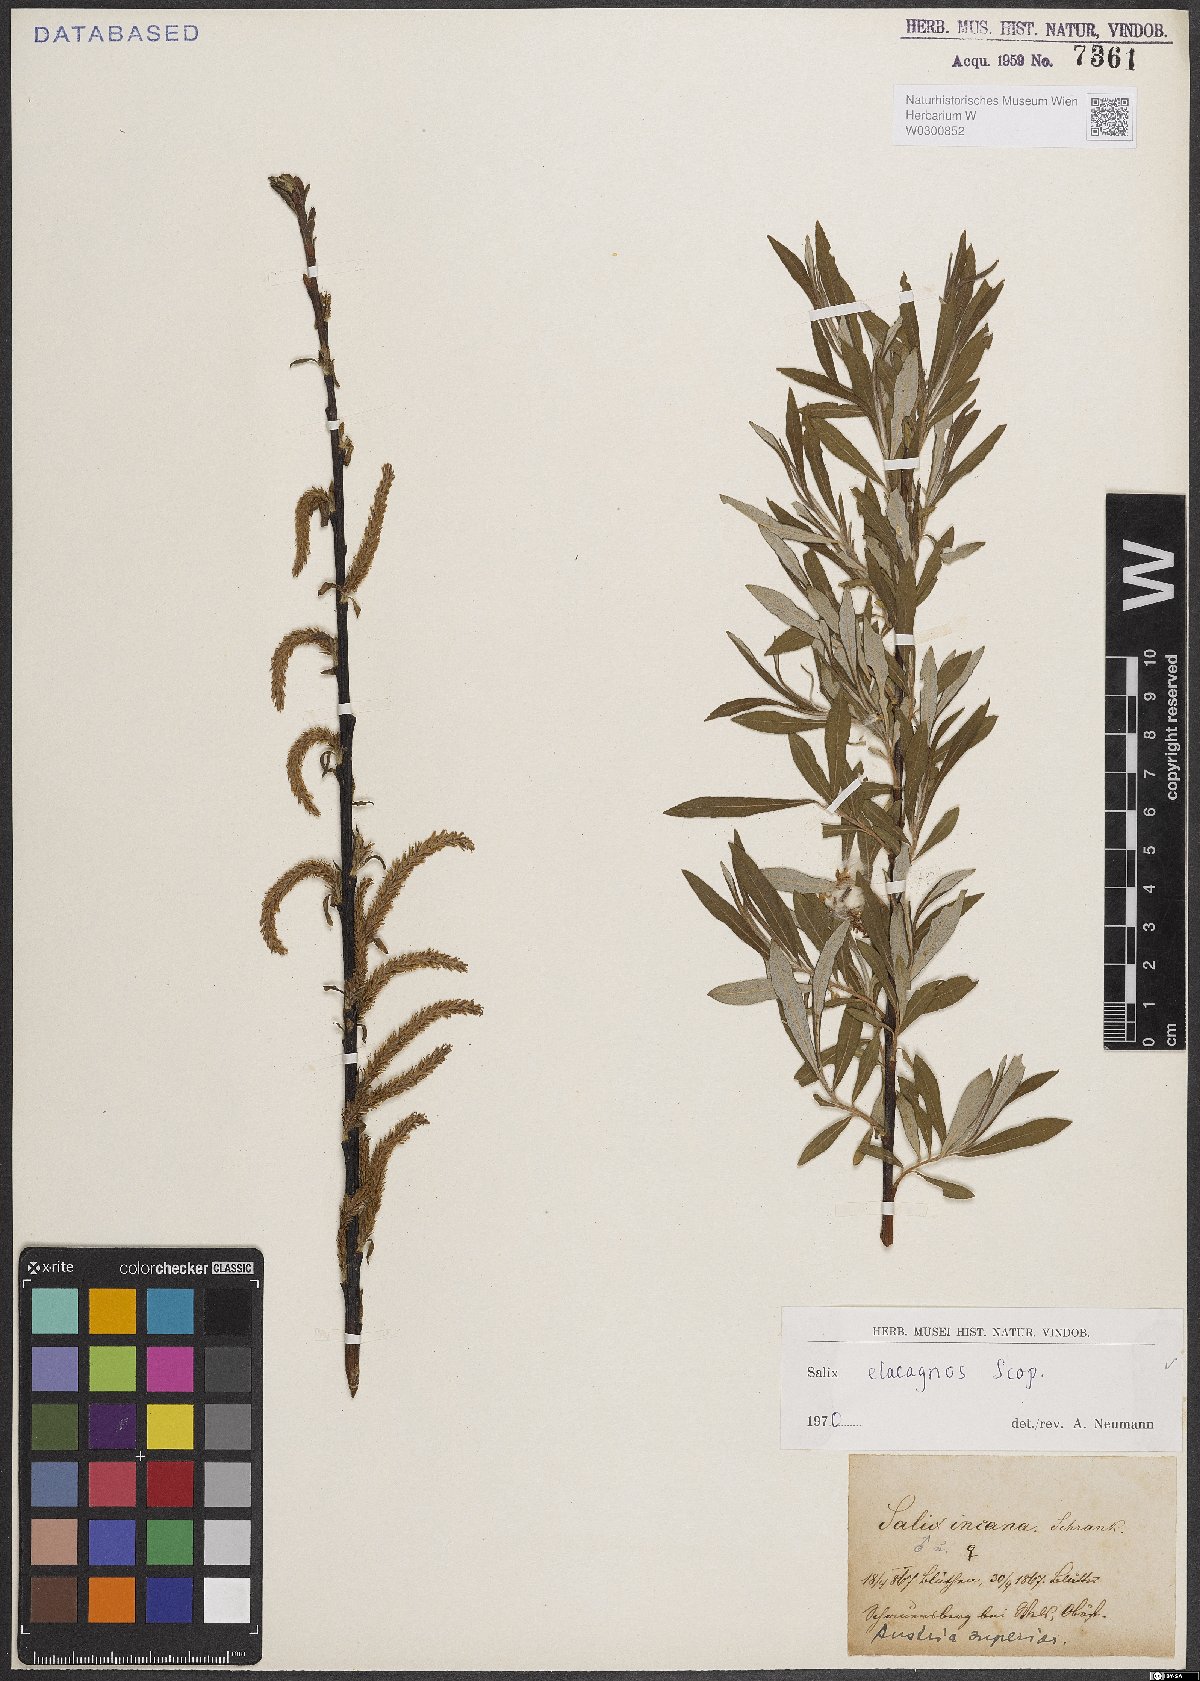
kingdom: Plantae
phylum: Tracheophyta
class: Magnoliopsida
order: Malpighiales
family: Salicaceae
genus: Salix
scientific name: Salix eleagnos
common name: Elaeagnus willow
